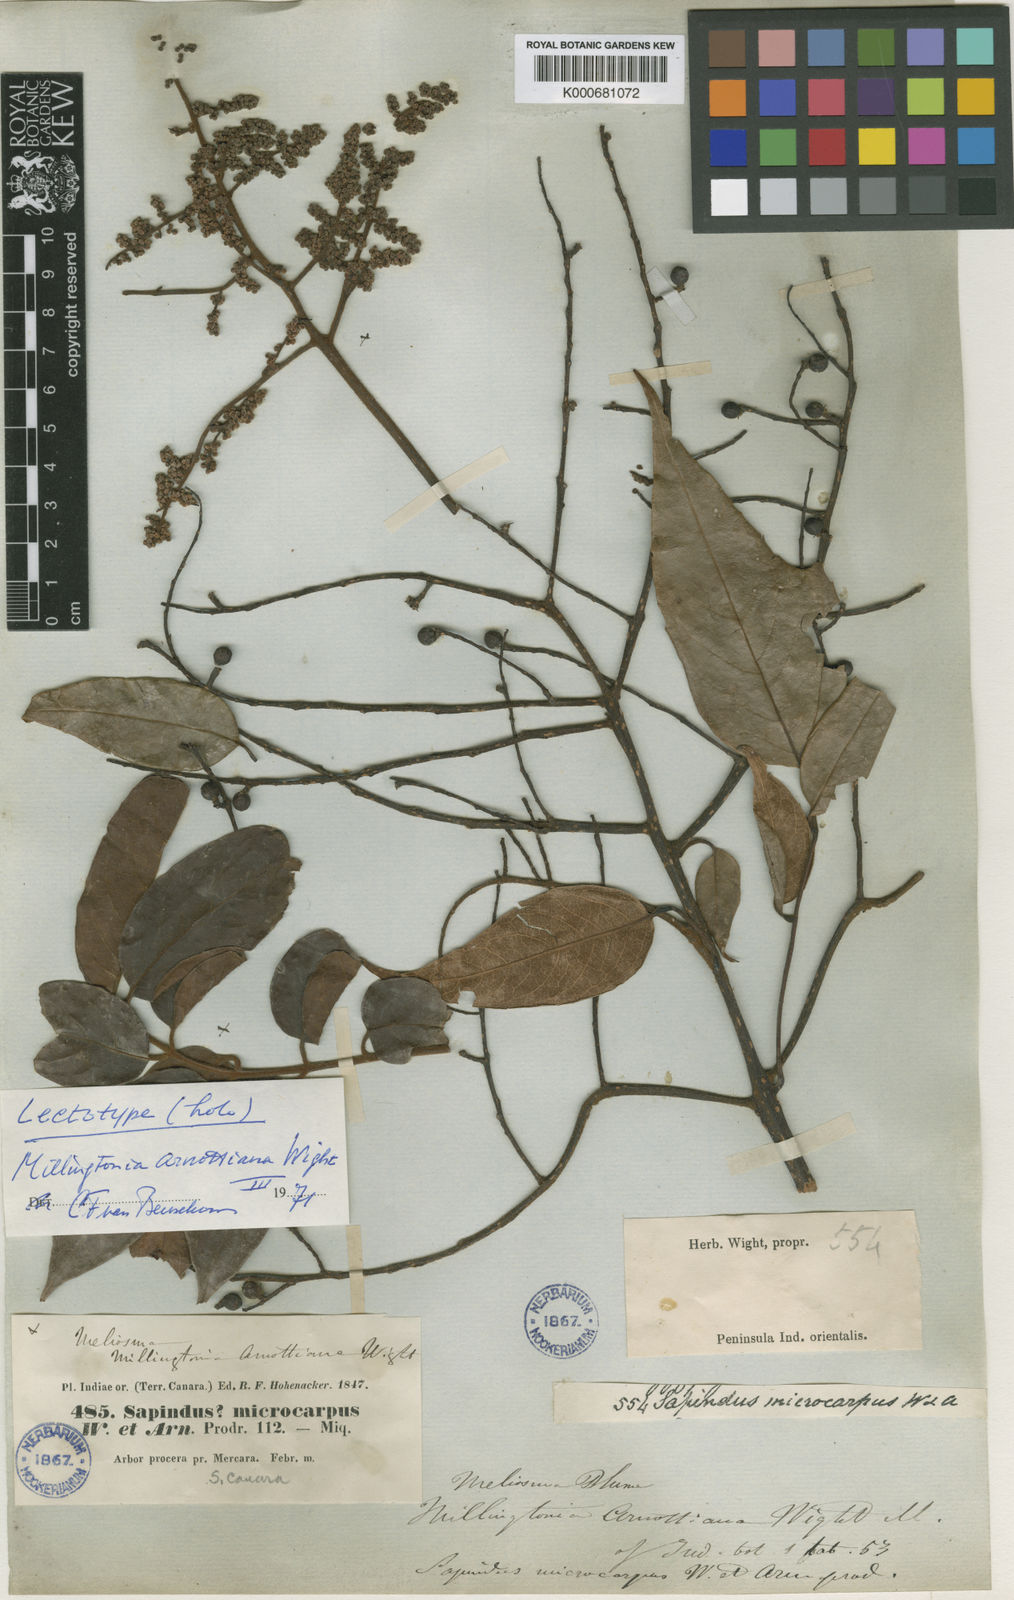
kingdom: Plantae
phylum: Tracheophyta
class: Magnoliopsida
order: Proteales
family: Sabiaceae
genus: Meliosma
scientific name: Meliosma arnottiana
